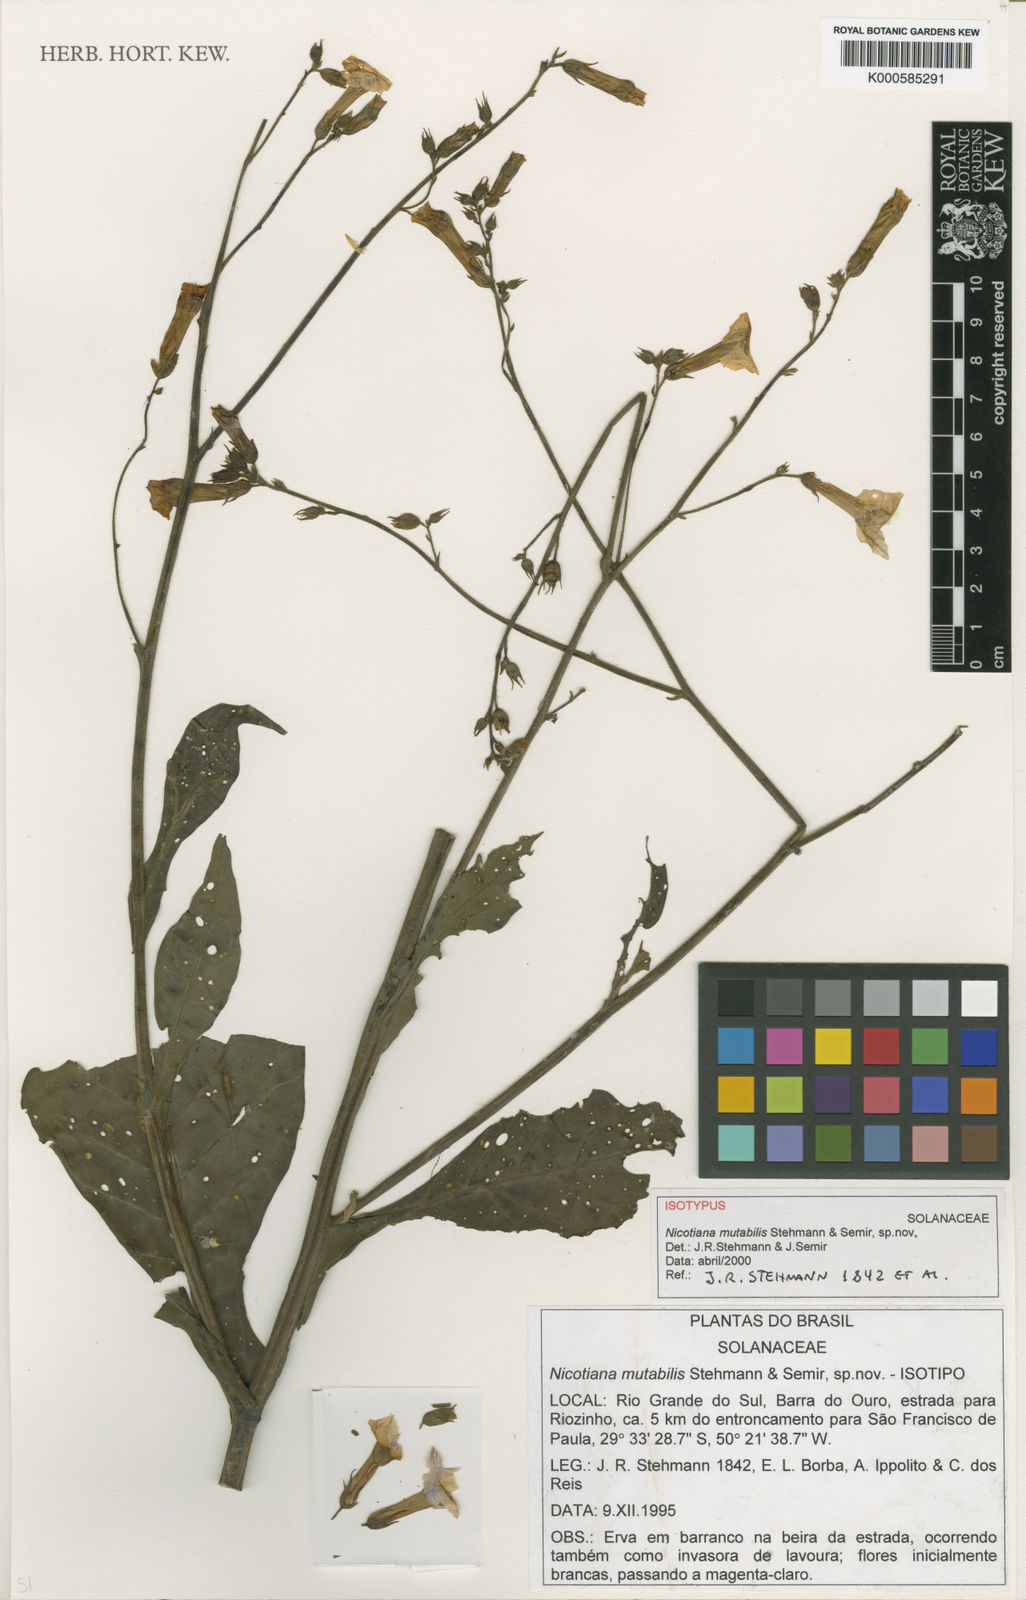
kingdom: Plantae
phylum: Tracheophyta
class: Magnoliopsida
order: Solanales
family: Solanaceae
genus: Nicotiana
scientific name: Nicotiana mutabilis
